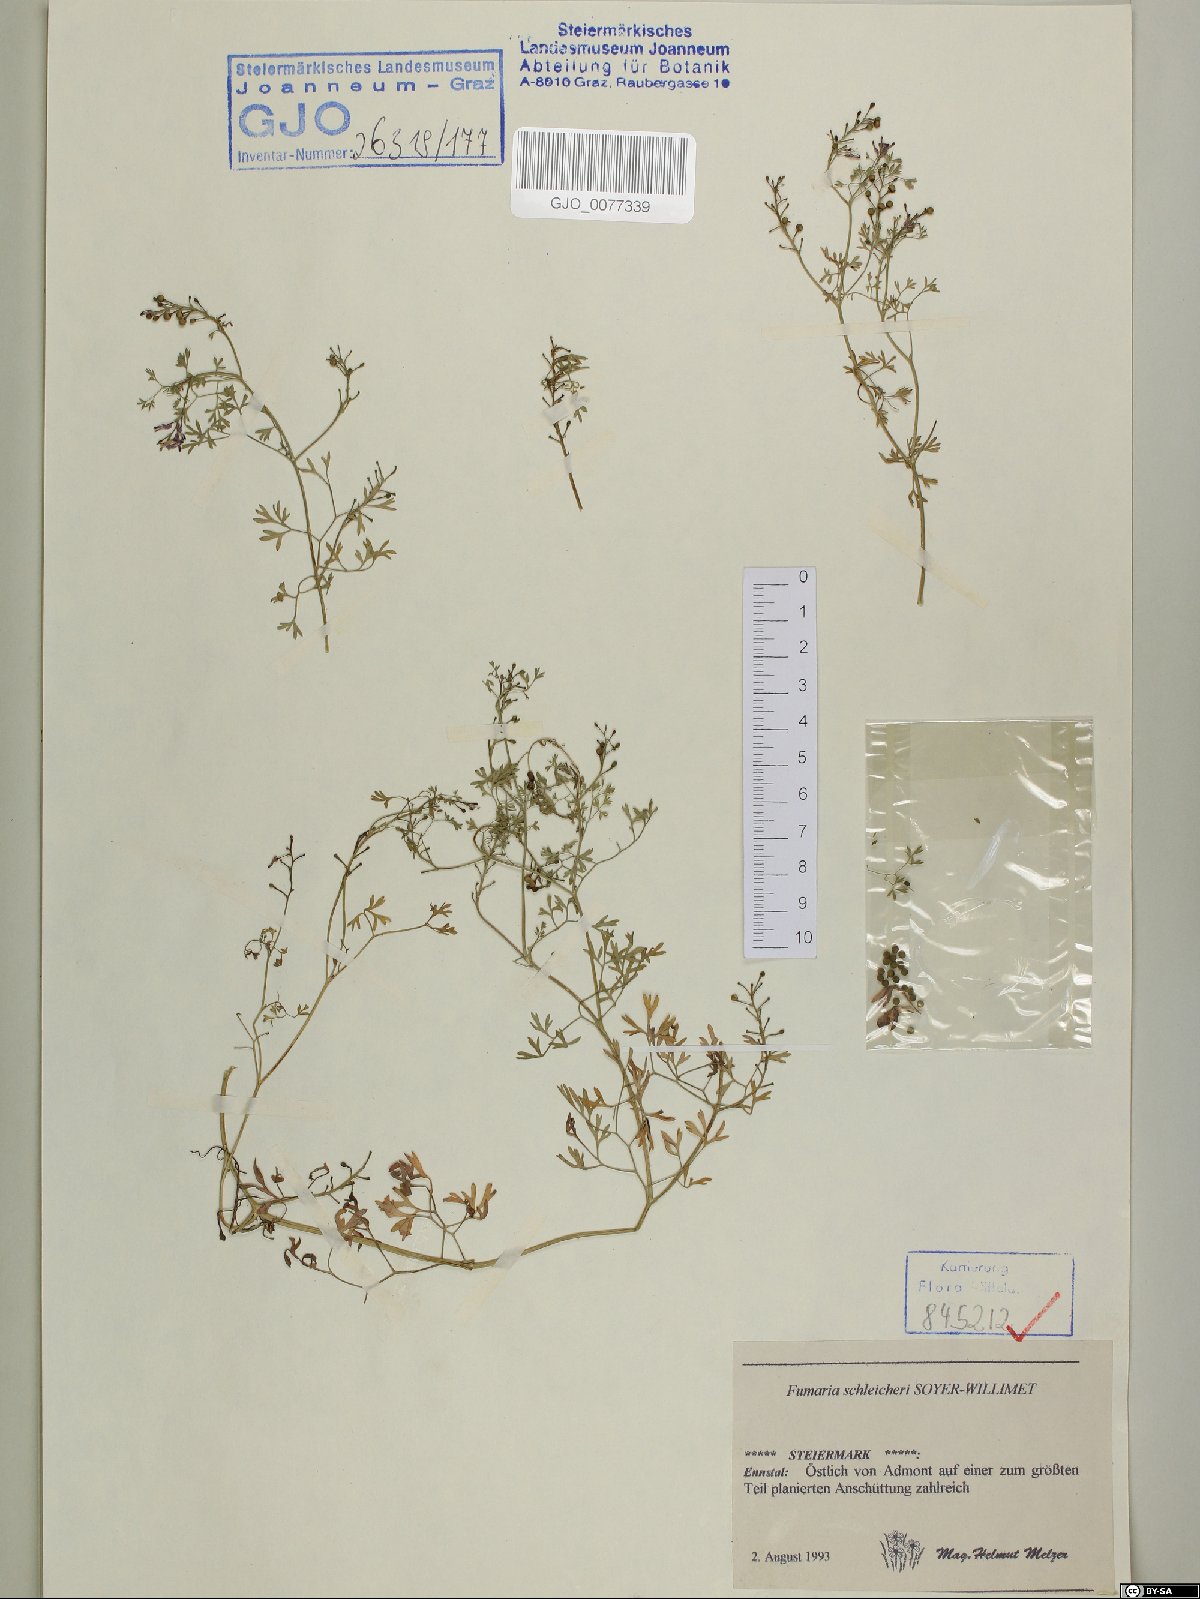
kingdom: Plantae
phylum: Tracheophyta
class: Magnoliopsida
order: Ranunculales
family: Papaveraceae
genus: Fumaria
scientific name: Fumaria schleicheri
